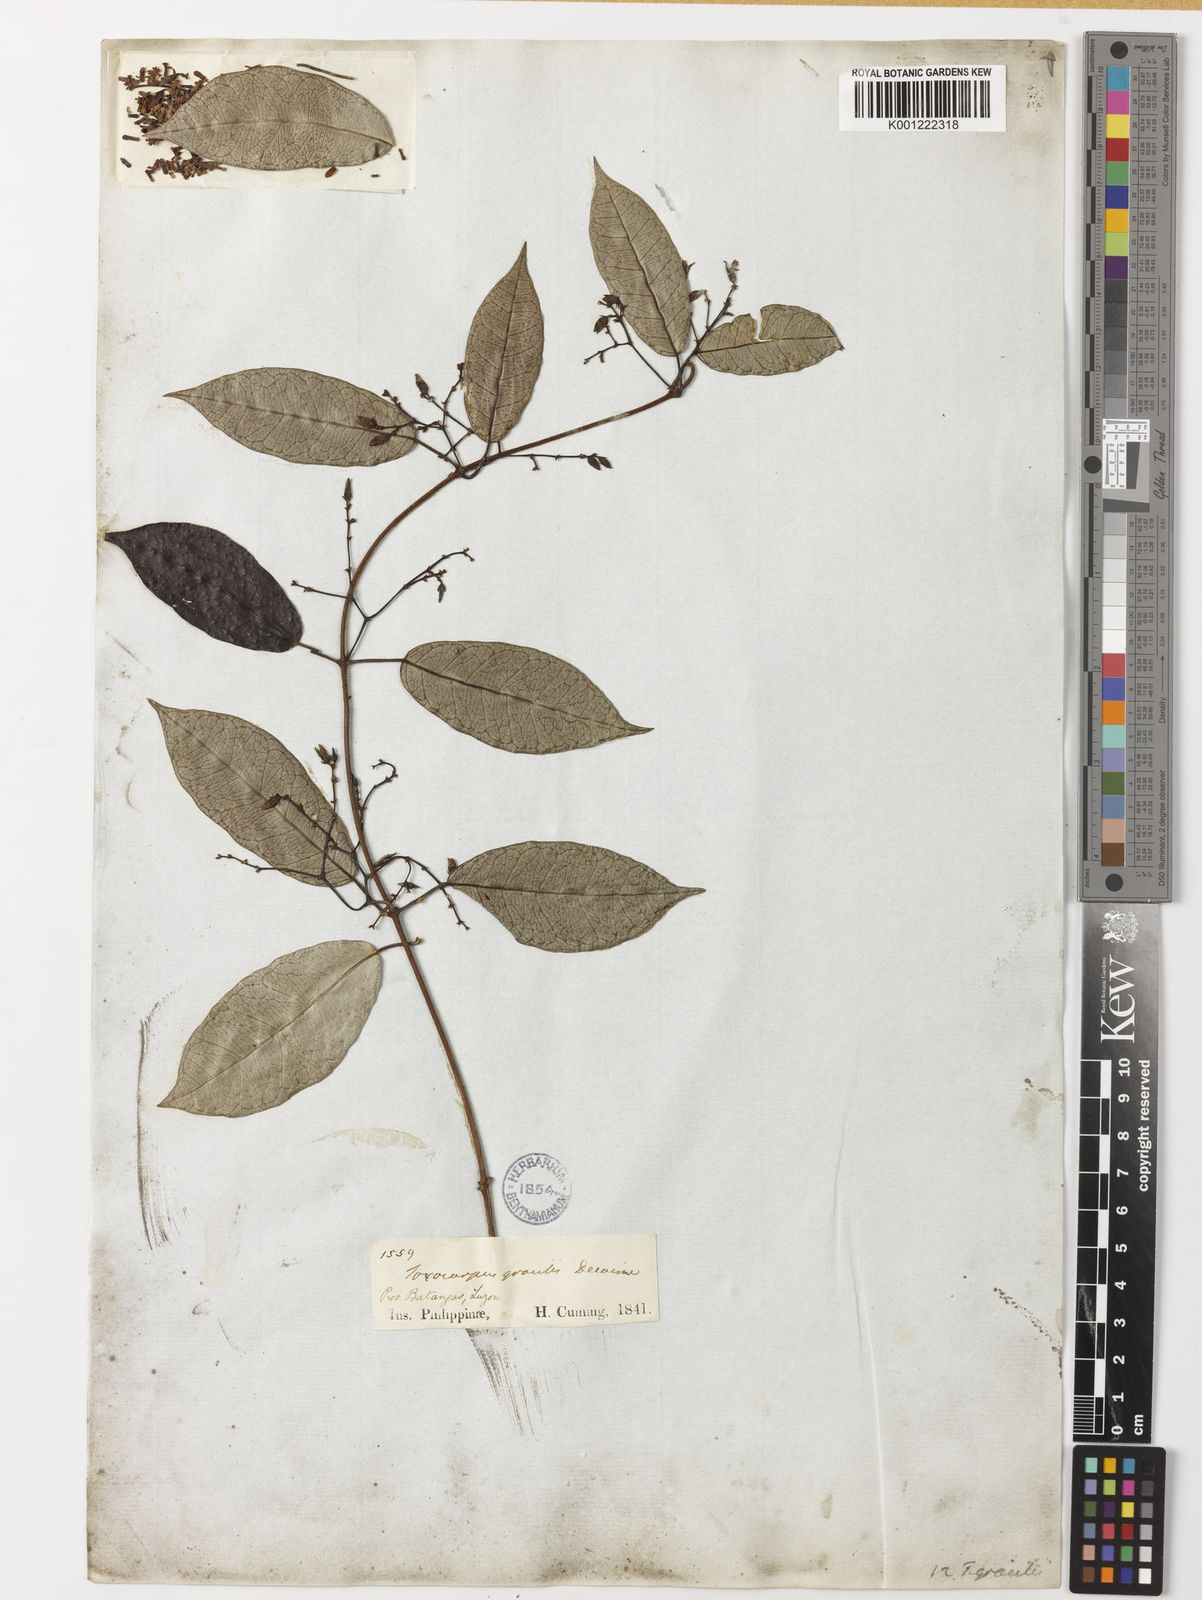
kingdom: Plantae
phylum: Tracheophyta
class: Magnoliopsida
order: Gentianales
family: Apocynaceae
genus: Toxocarpus
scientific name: Toxocarpus glaucus
